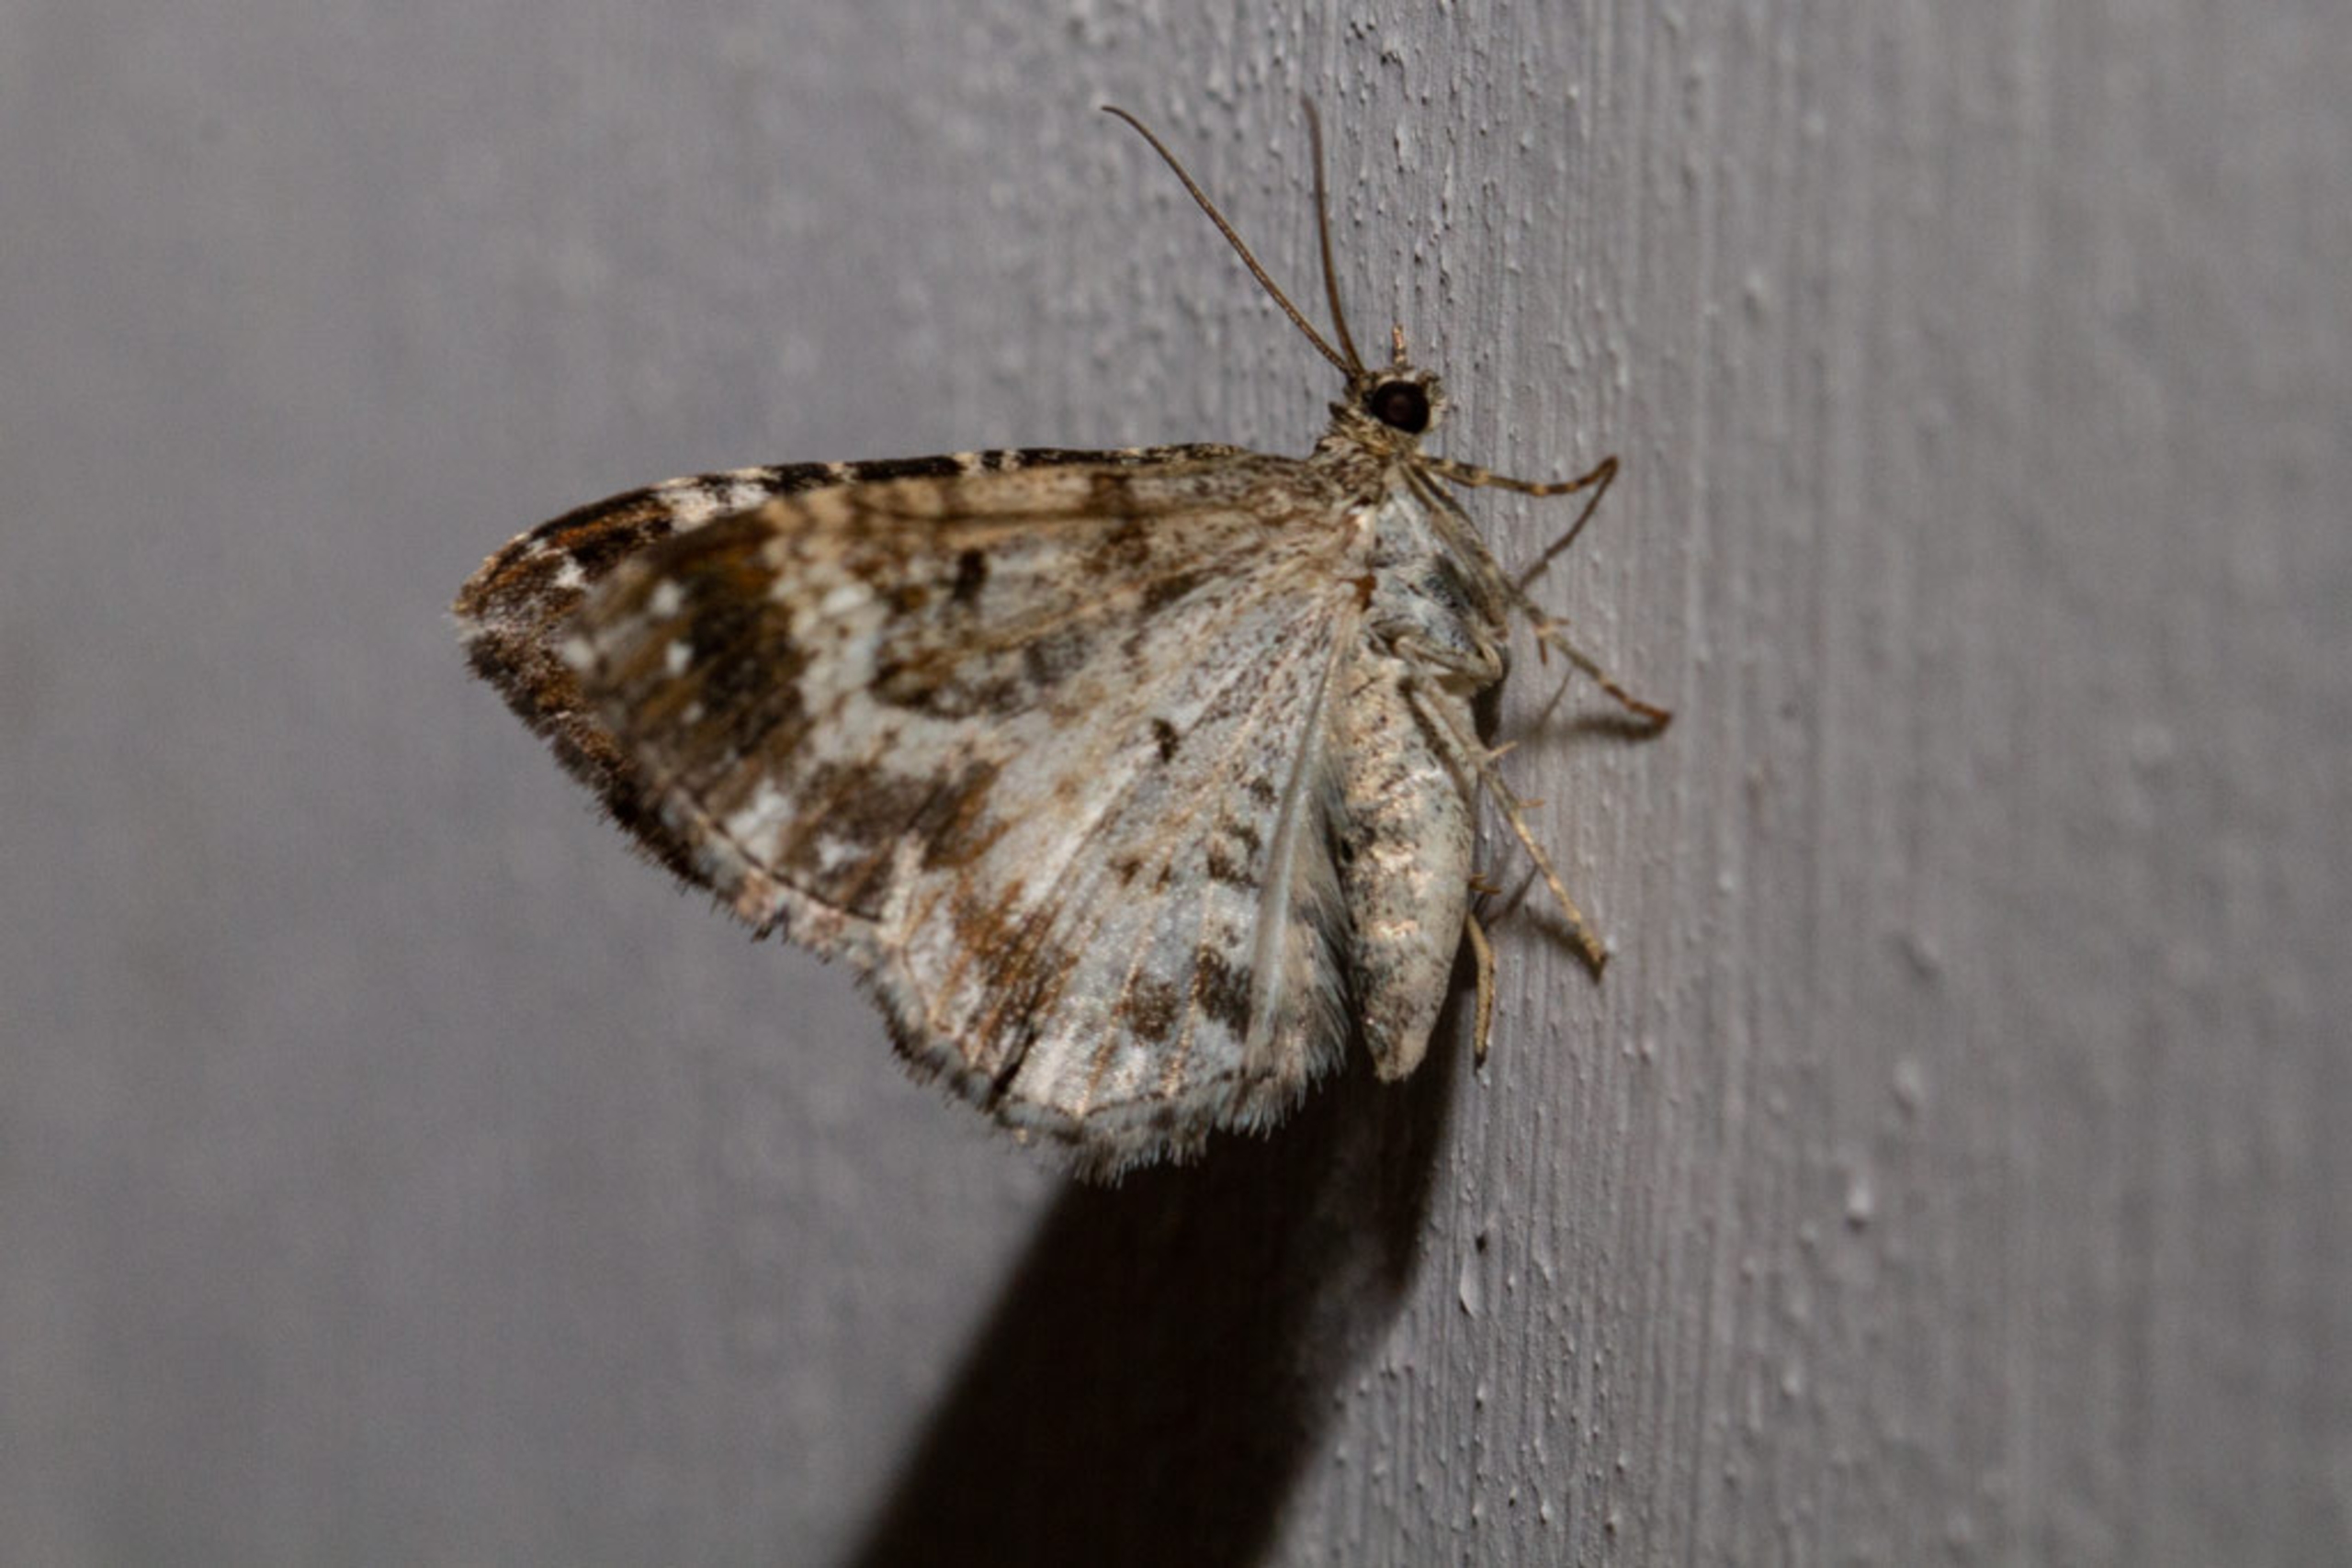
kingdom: Animalia
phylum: Arthropoda
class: Insecta
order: Lepidoptera
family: Geometridae
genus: Epirrhoe
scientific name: Epirrhoe alternata
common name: Almindelig bladmåler
